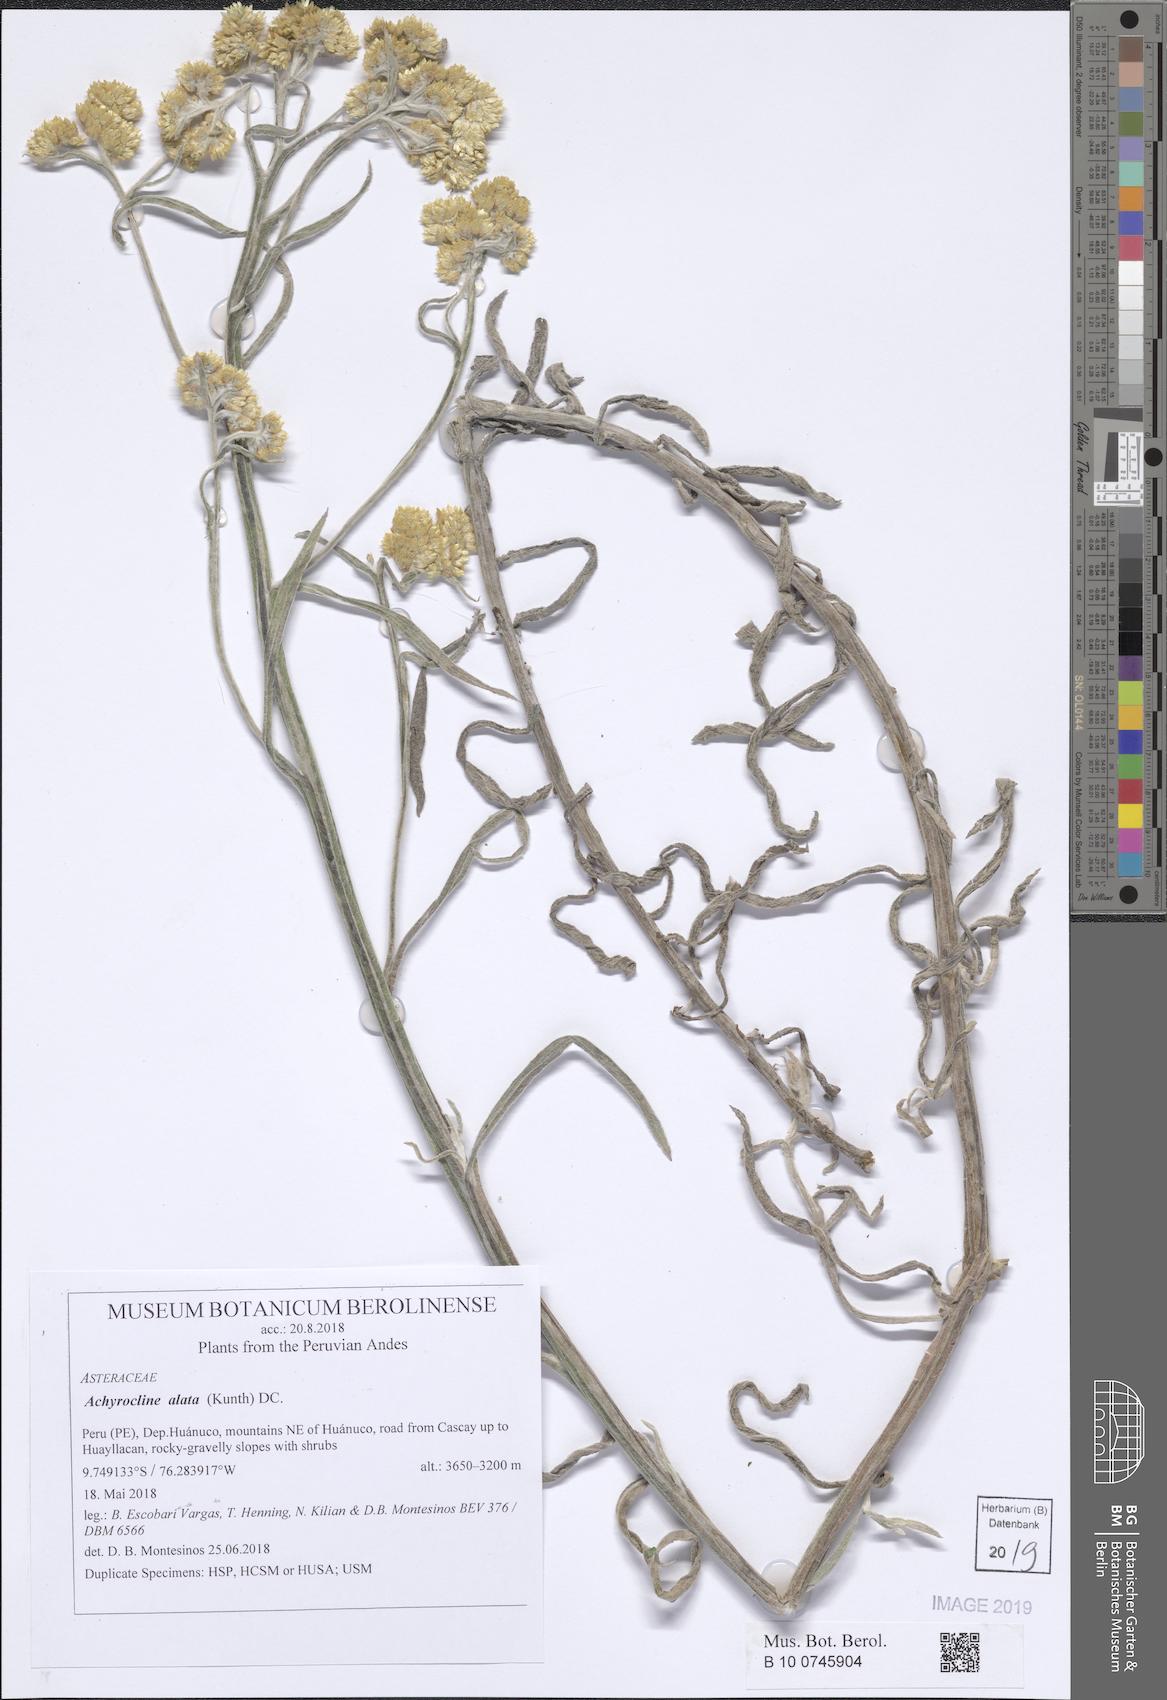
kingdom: Plantae
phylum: Tracheophyta
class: Magnoliopsida
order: Asterales
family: Asteraceae
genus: Achyrocline
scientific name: Achyrocline alata
